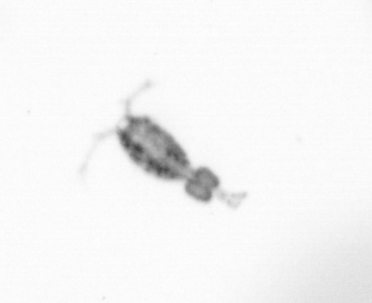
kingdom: Animalia
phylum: Arthropoda
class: Copepoda
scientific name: Copepoda
